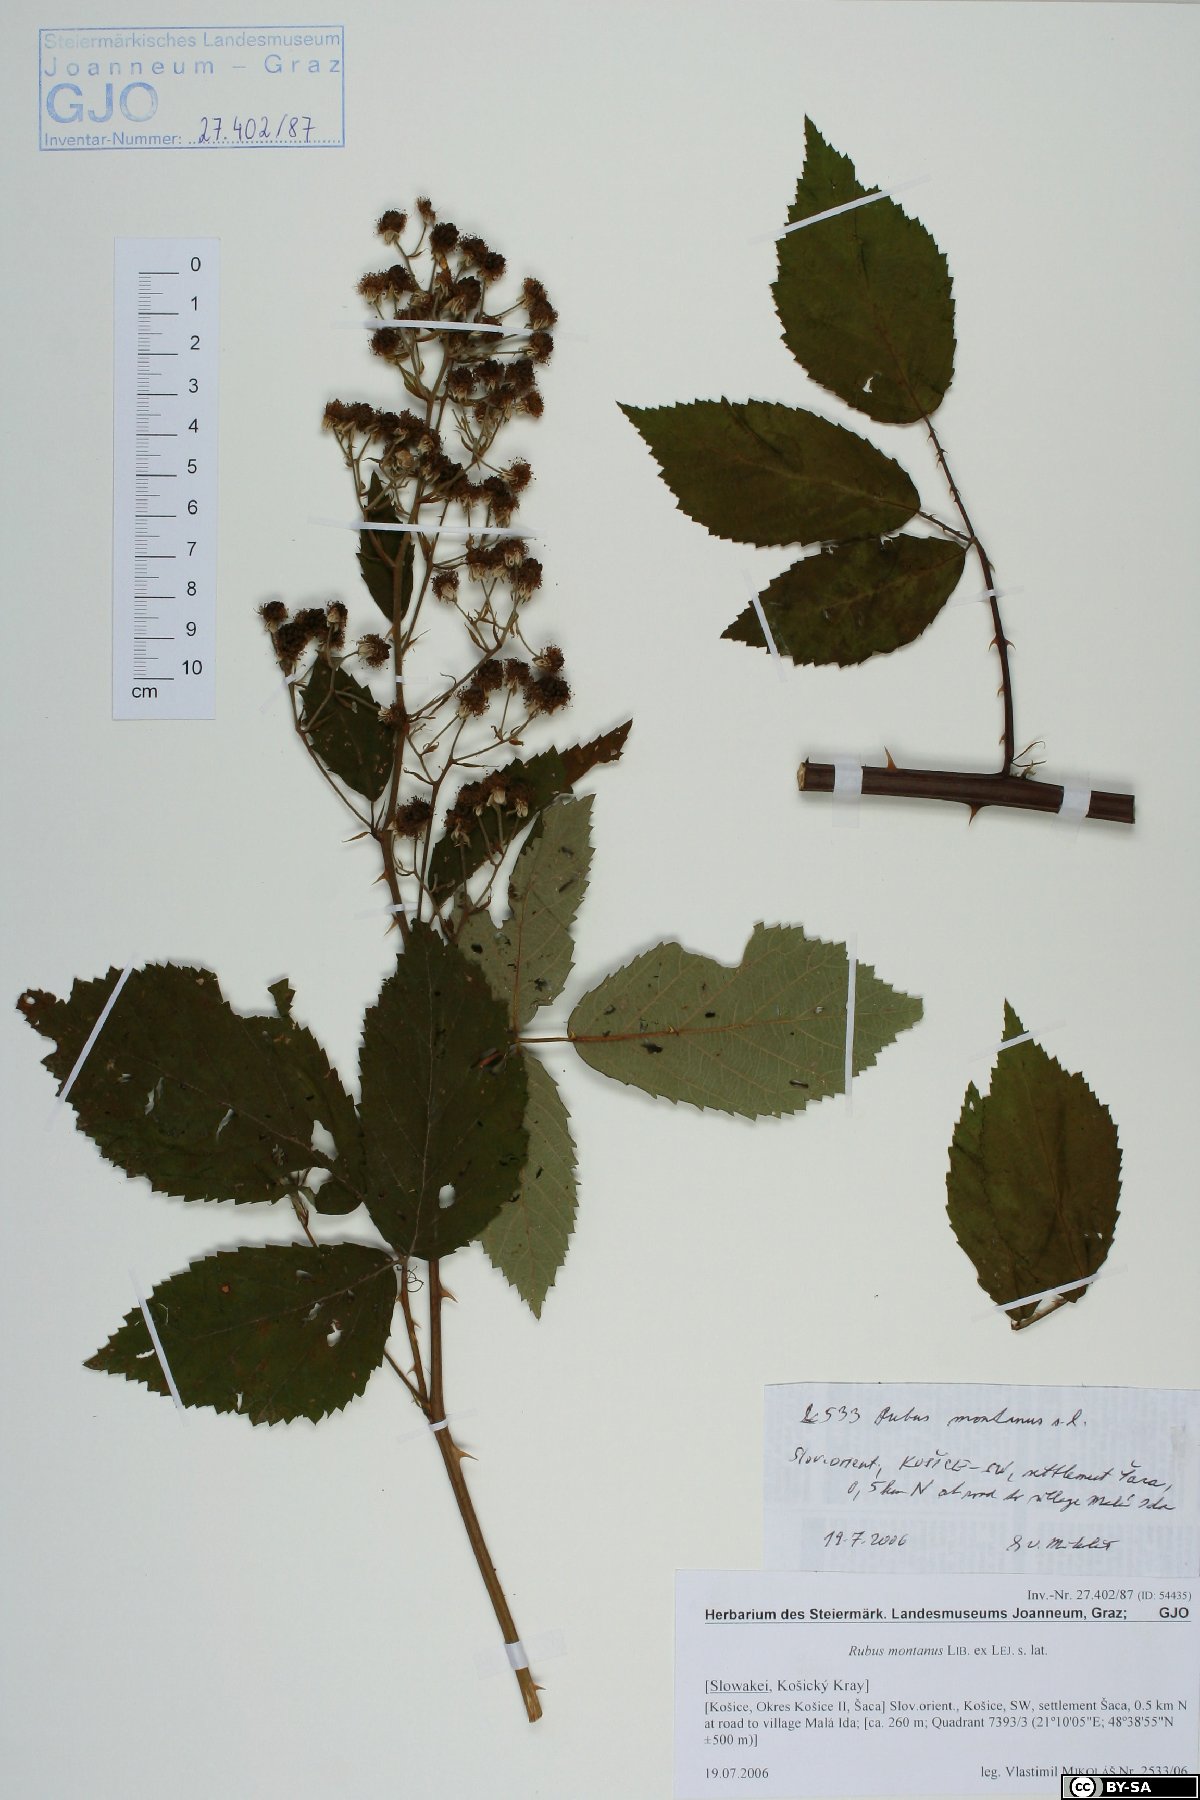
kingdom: Plantae
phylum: Tracheophyta
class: Magnoliopsida
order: Rosales
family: Rosaceae
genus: Rubus
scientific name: Rubus montanus
